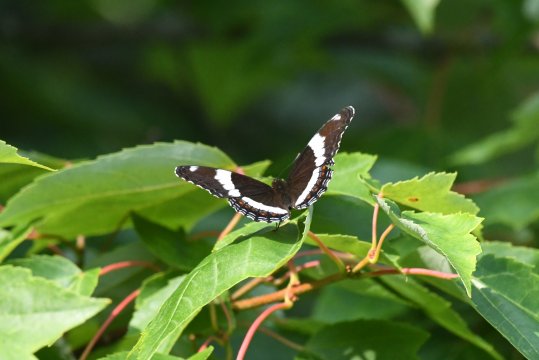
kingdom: Animalia
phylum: Arthropoda
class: Insecta
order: Lepidoptera
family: Nymphalidae
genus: Limenitis
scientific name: Limenitis arthemis
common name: Red-spotted Admiral
